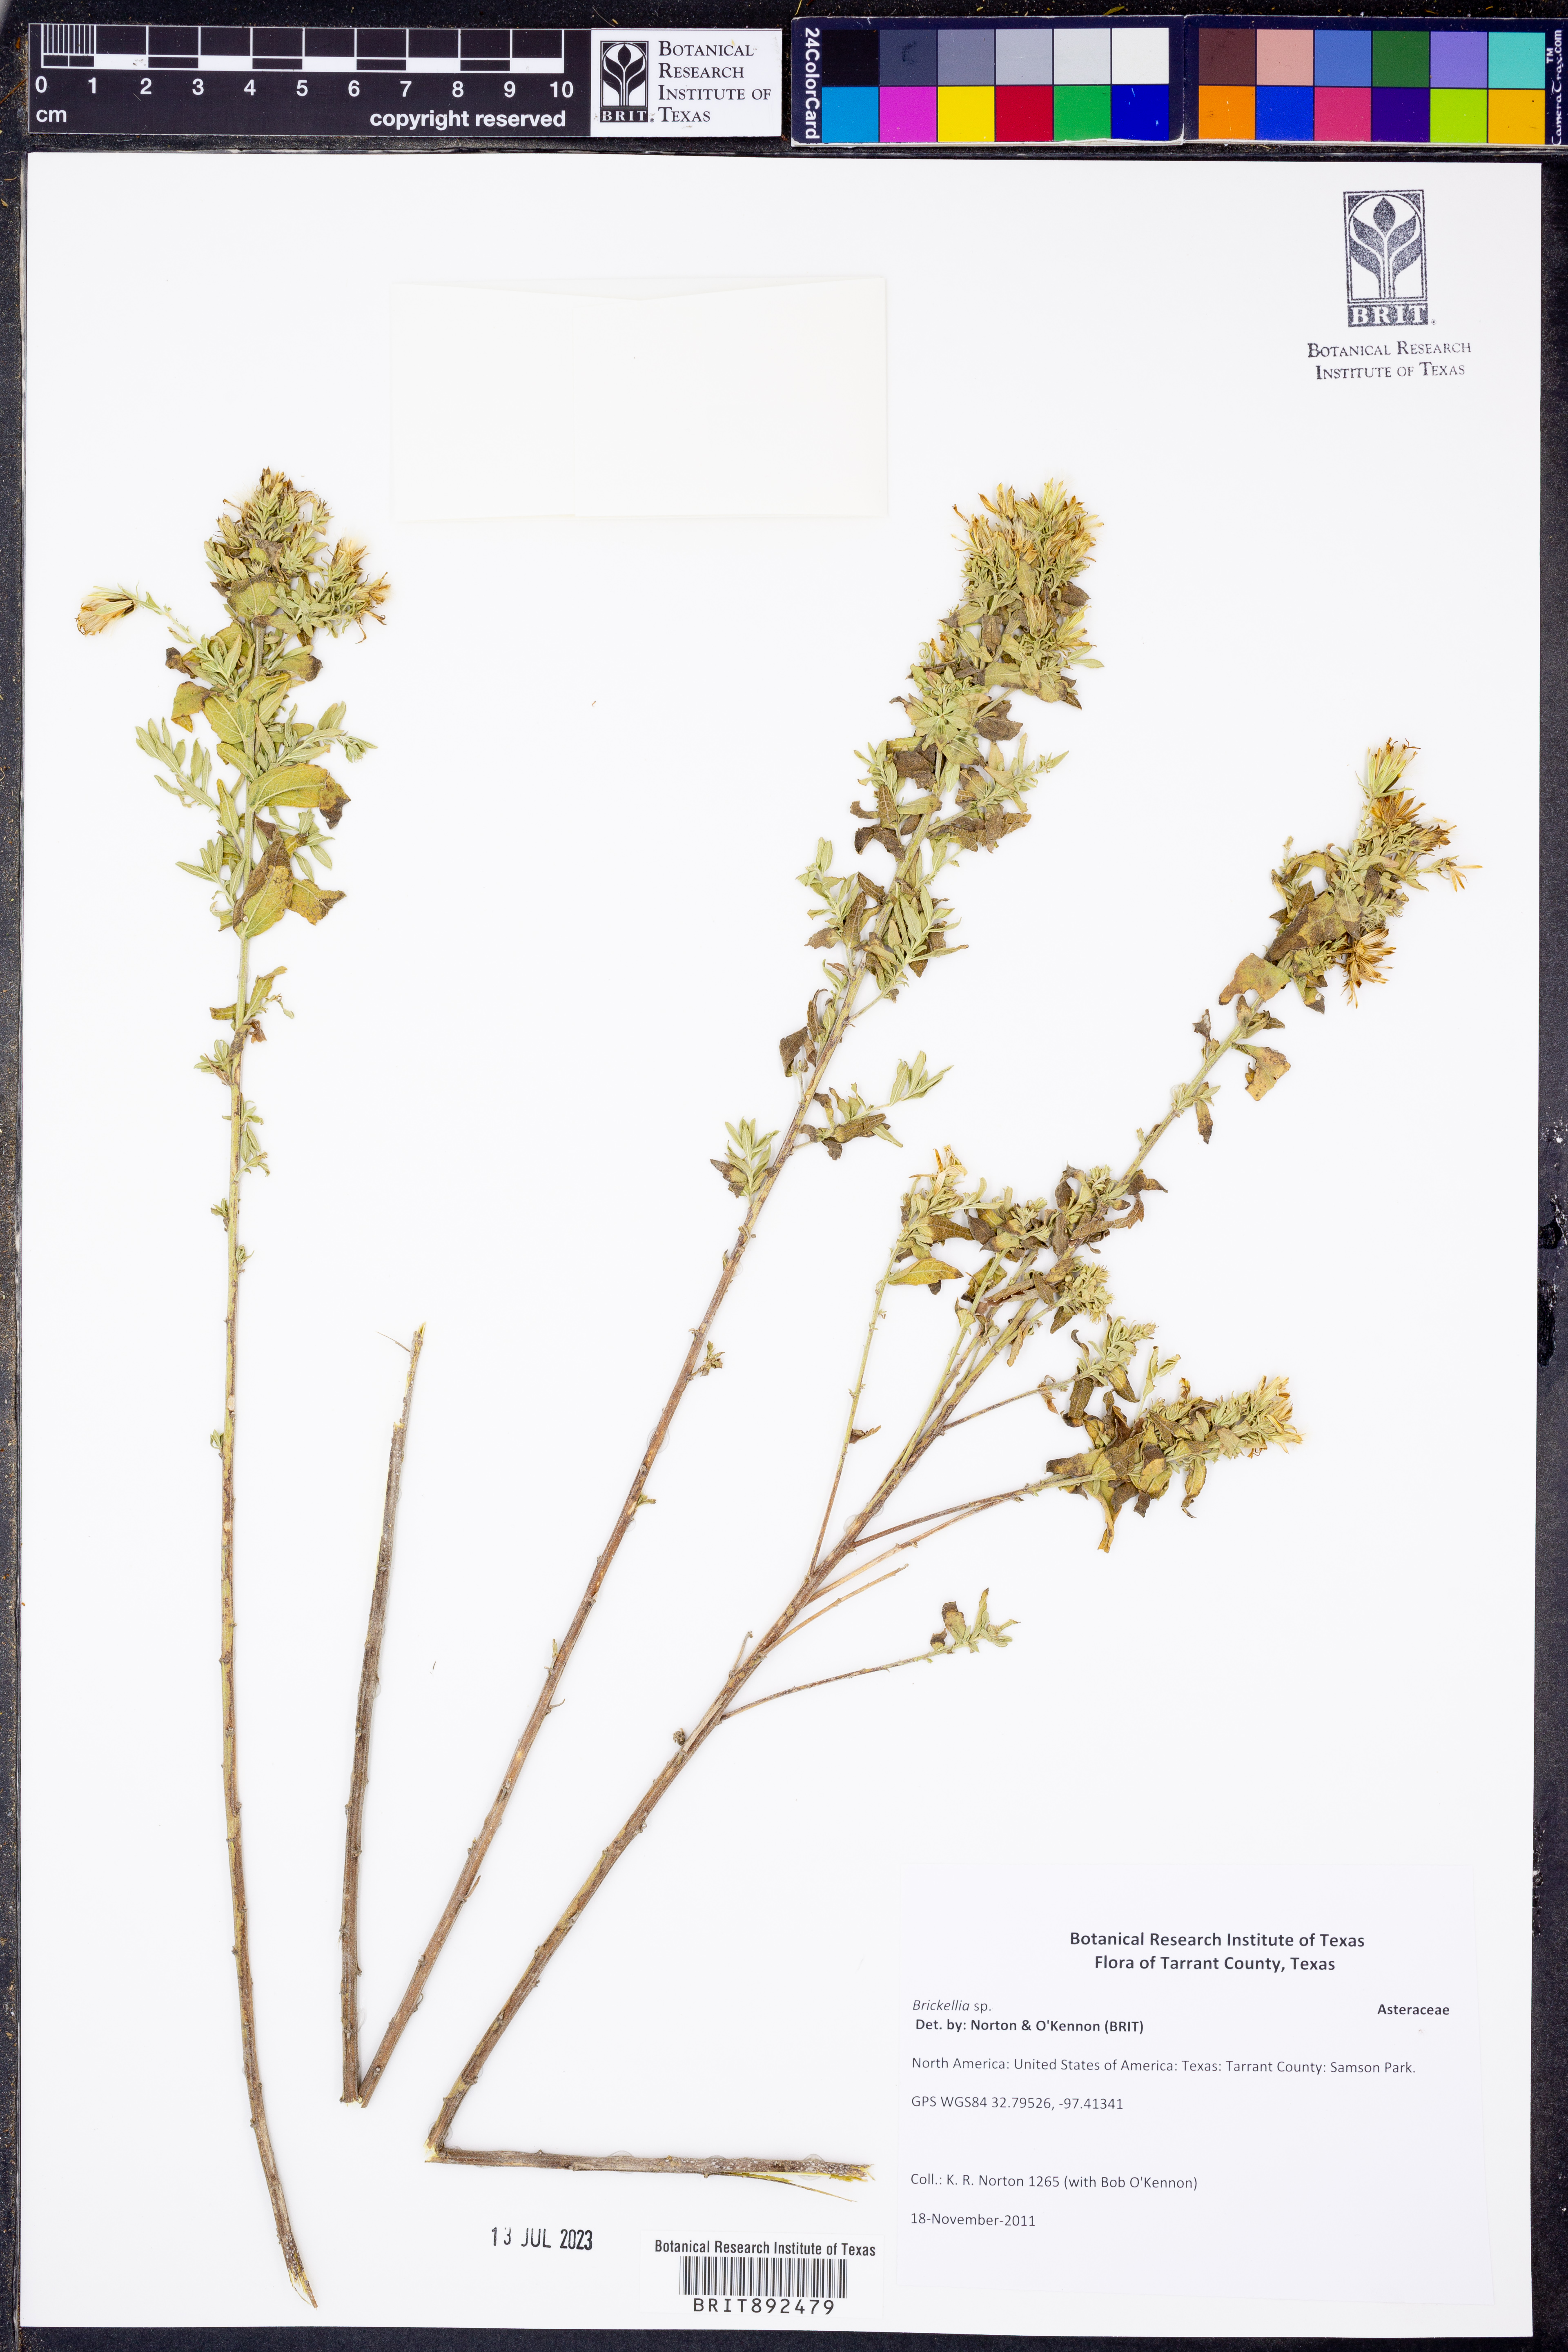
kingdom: Plantae
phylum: Tracheophyta
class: Magnoliopsida
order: Asterales
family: Asteraceae
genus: Brickellia
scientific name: Brickellia
